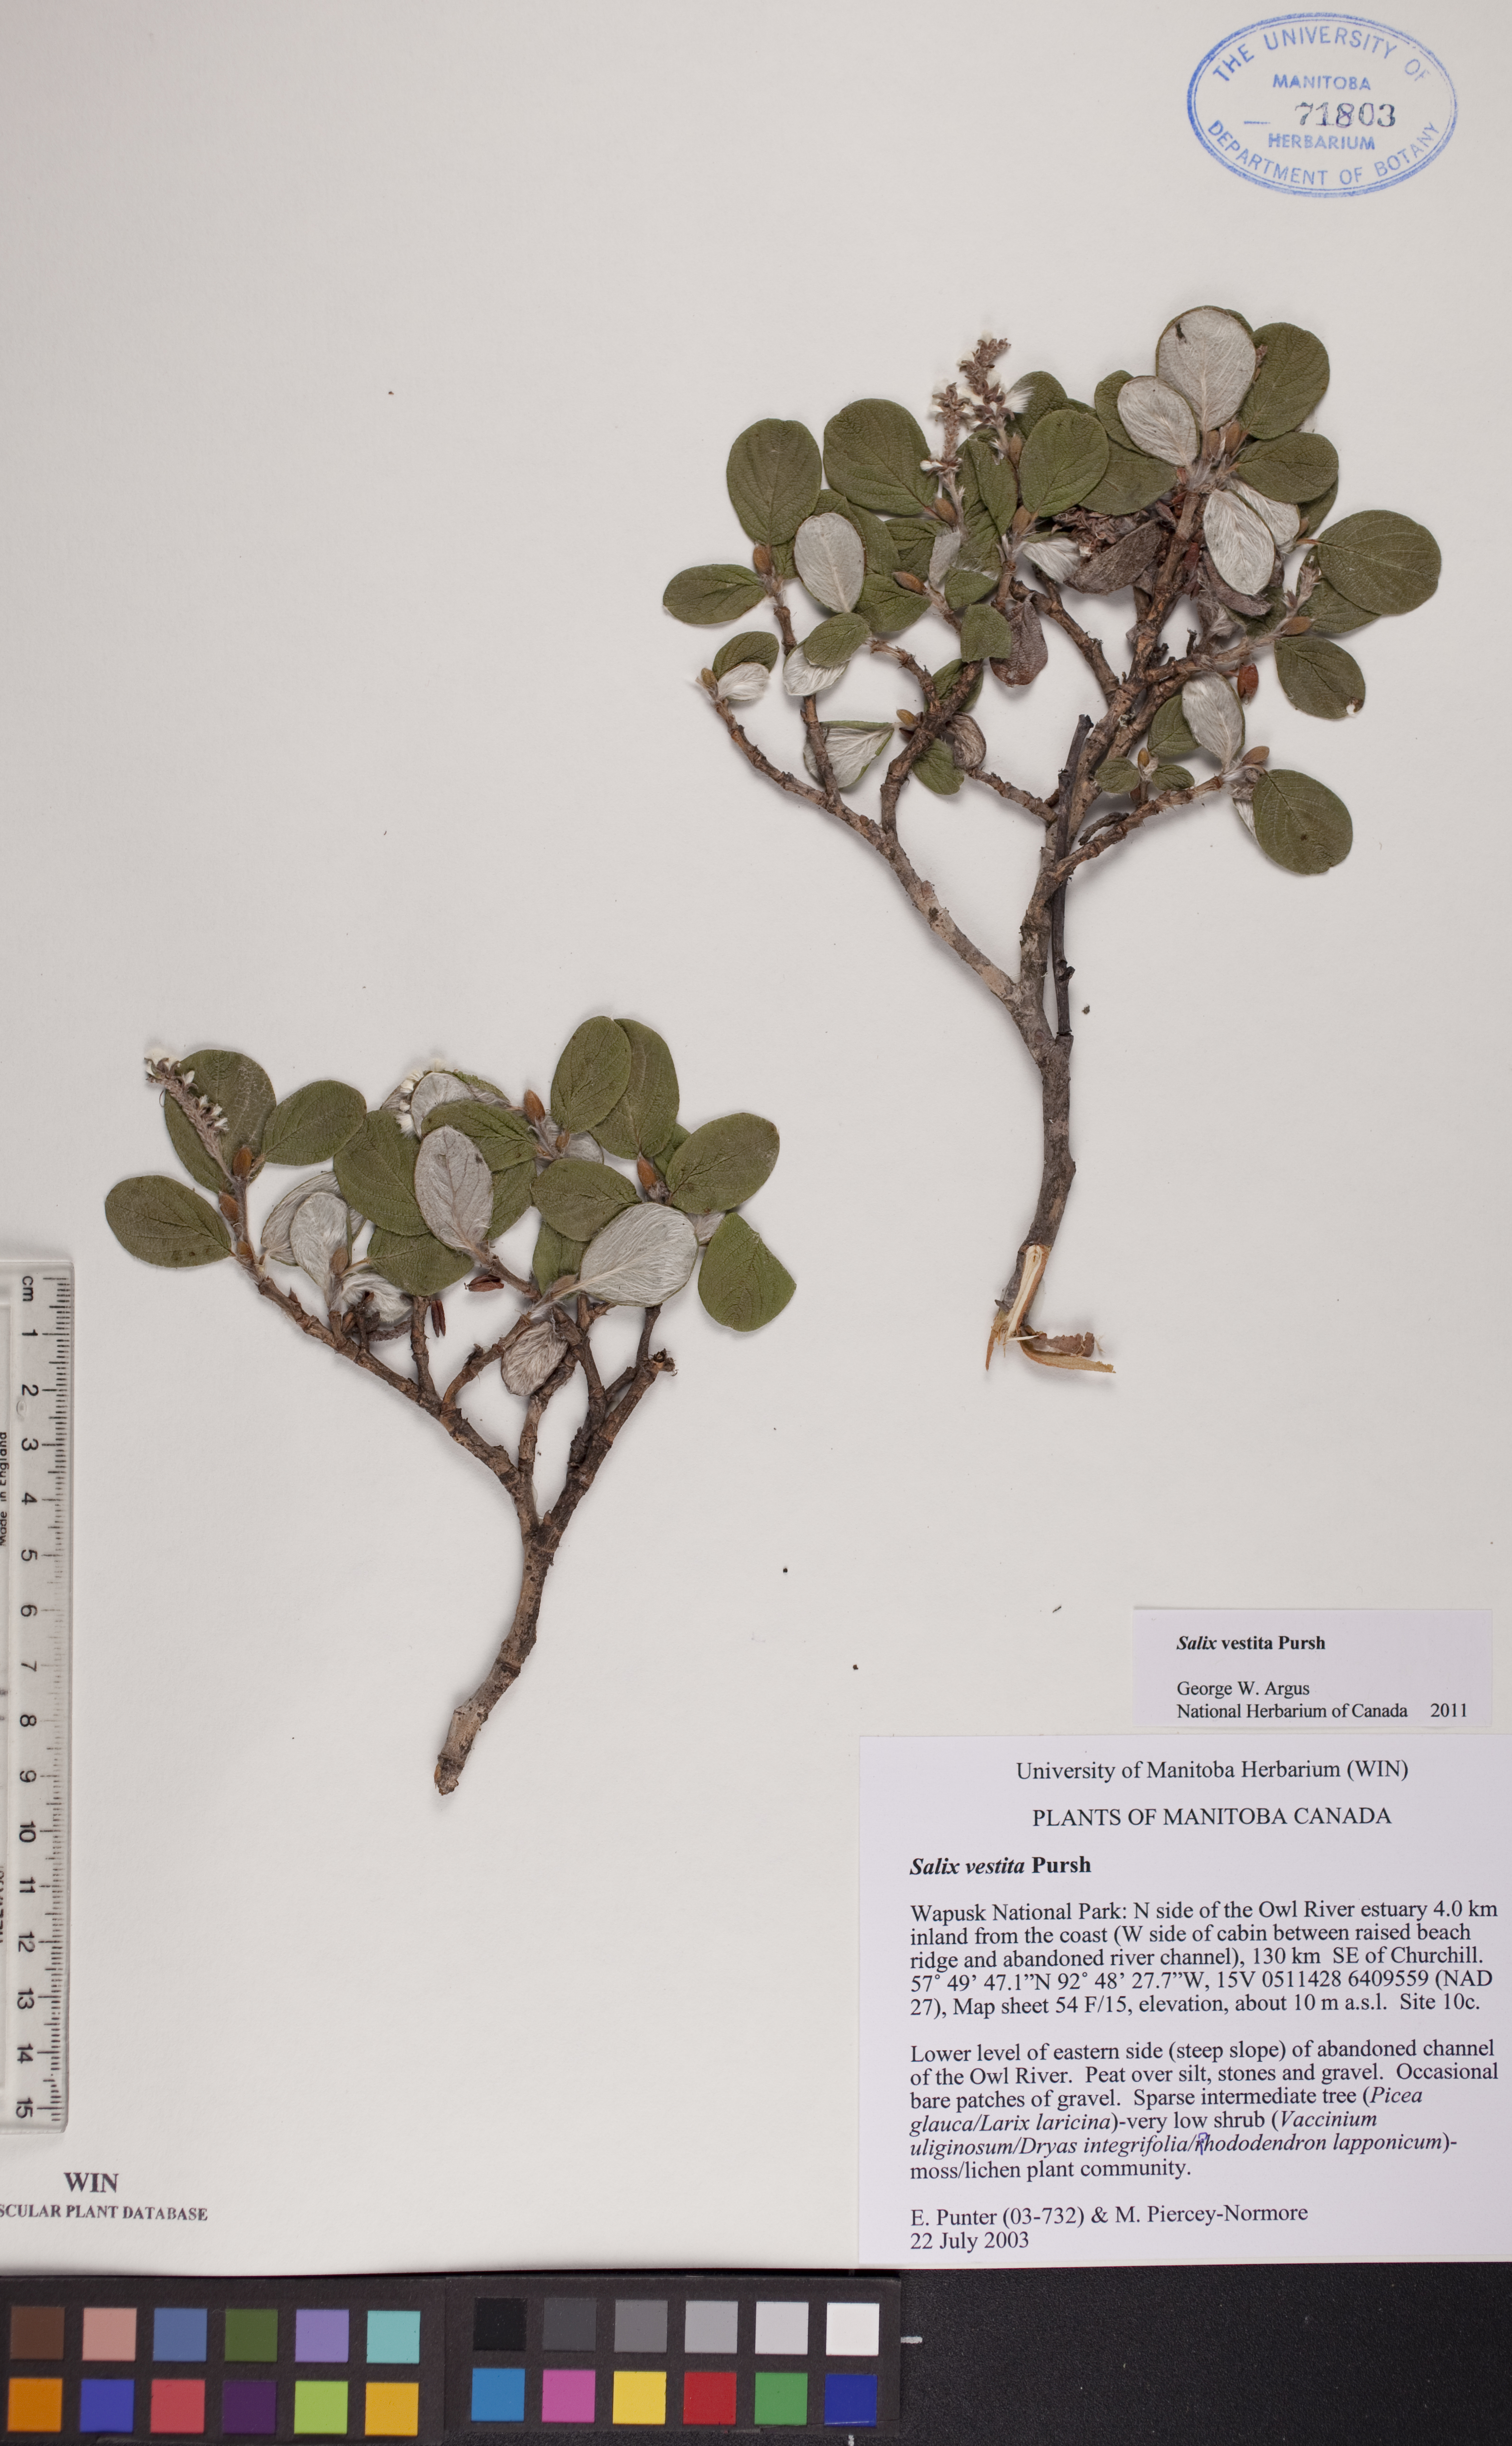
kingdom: Plantae
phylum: Tracheophyta
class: Magnoliopsida
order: Malpighiales
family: Salicaceae
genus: Salix
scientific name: Salix vestita
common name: Hairy willow
